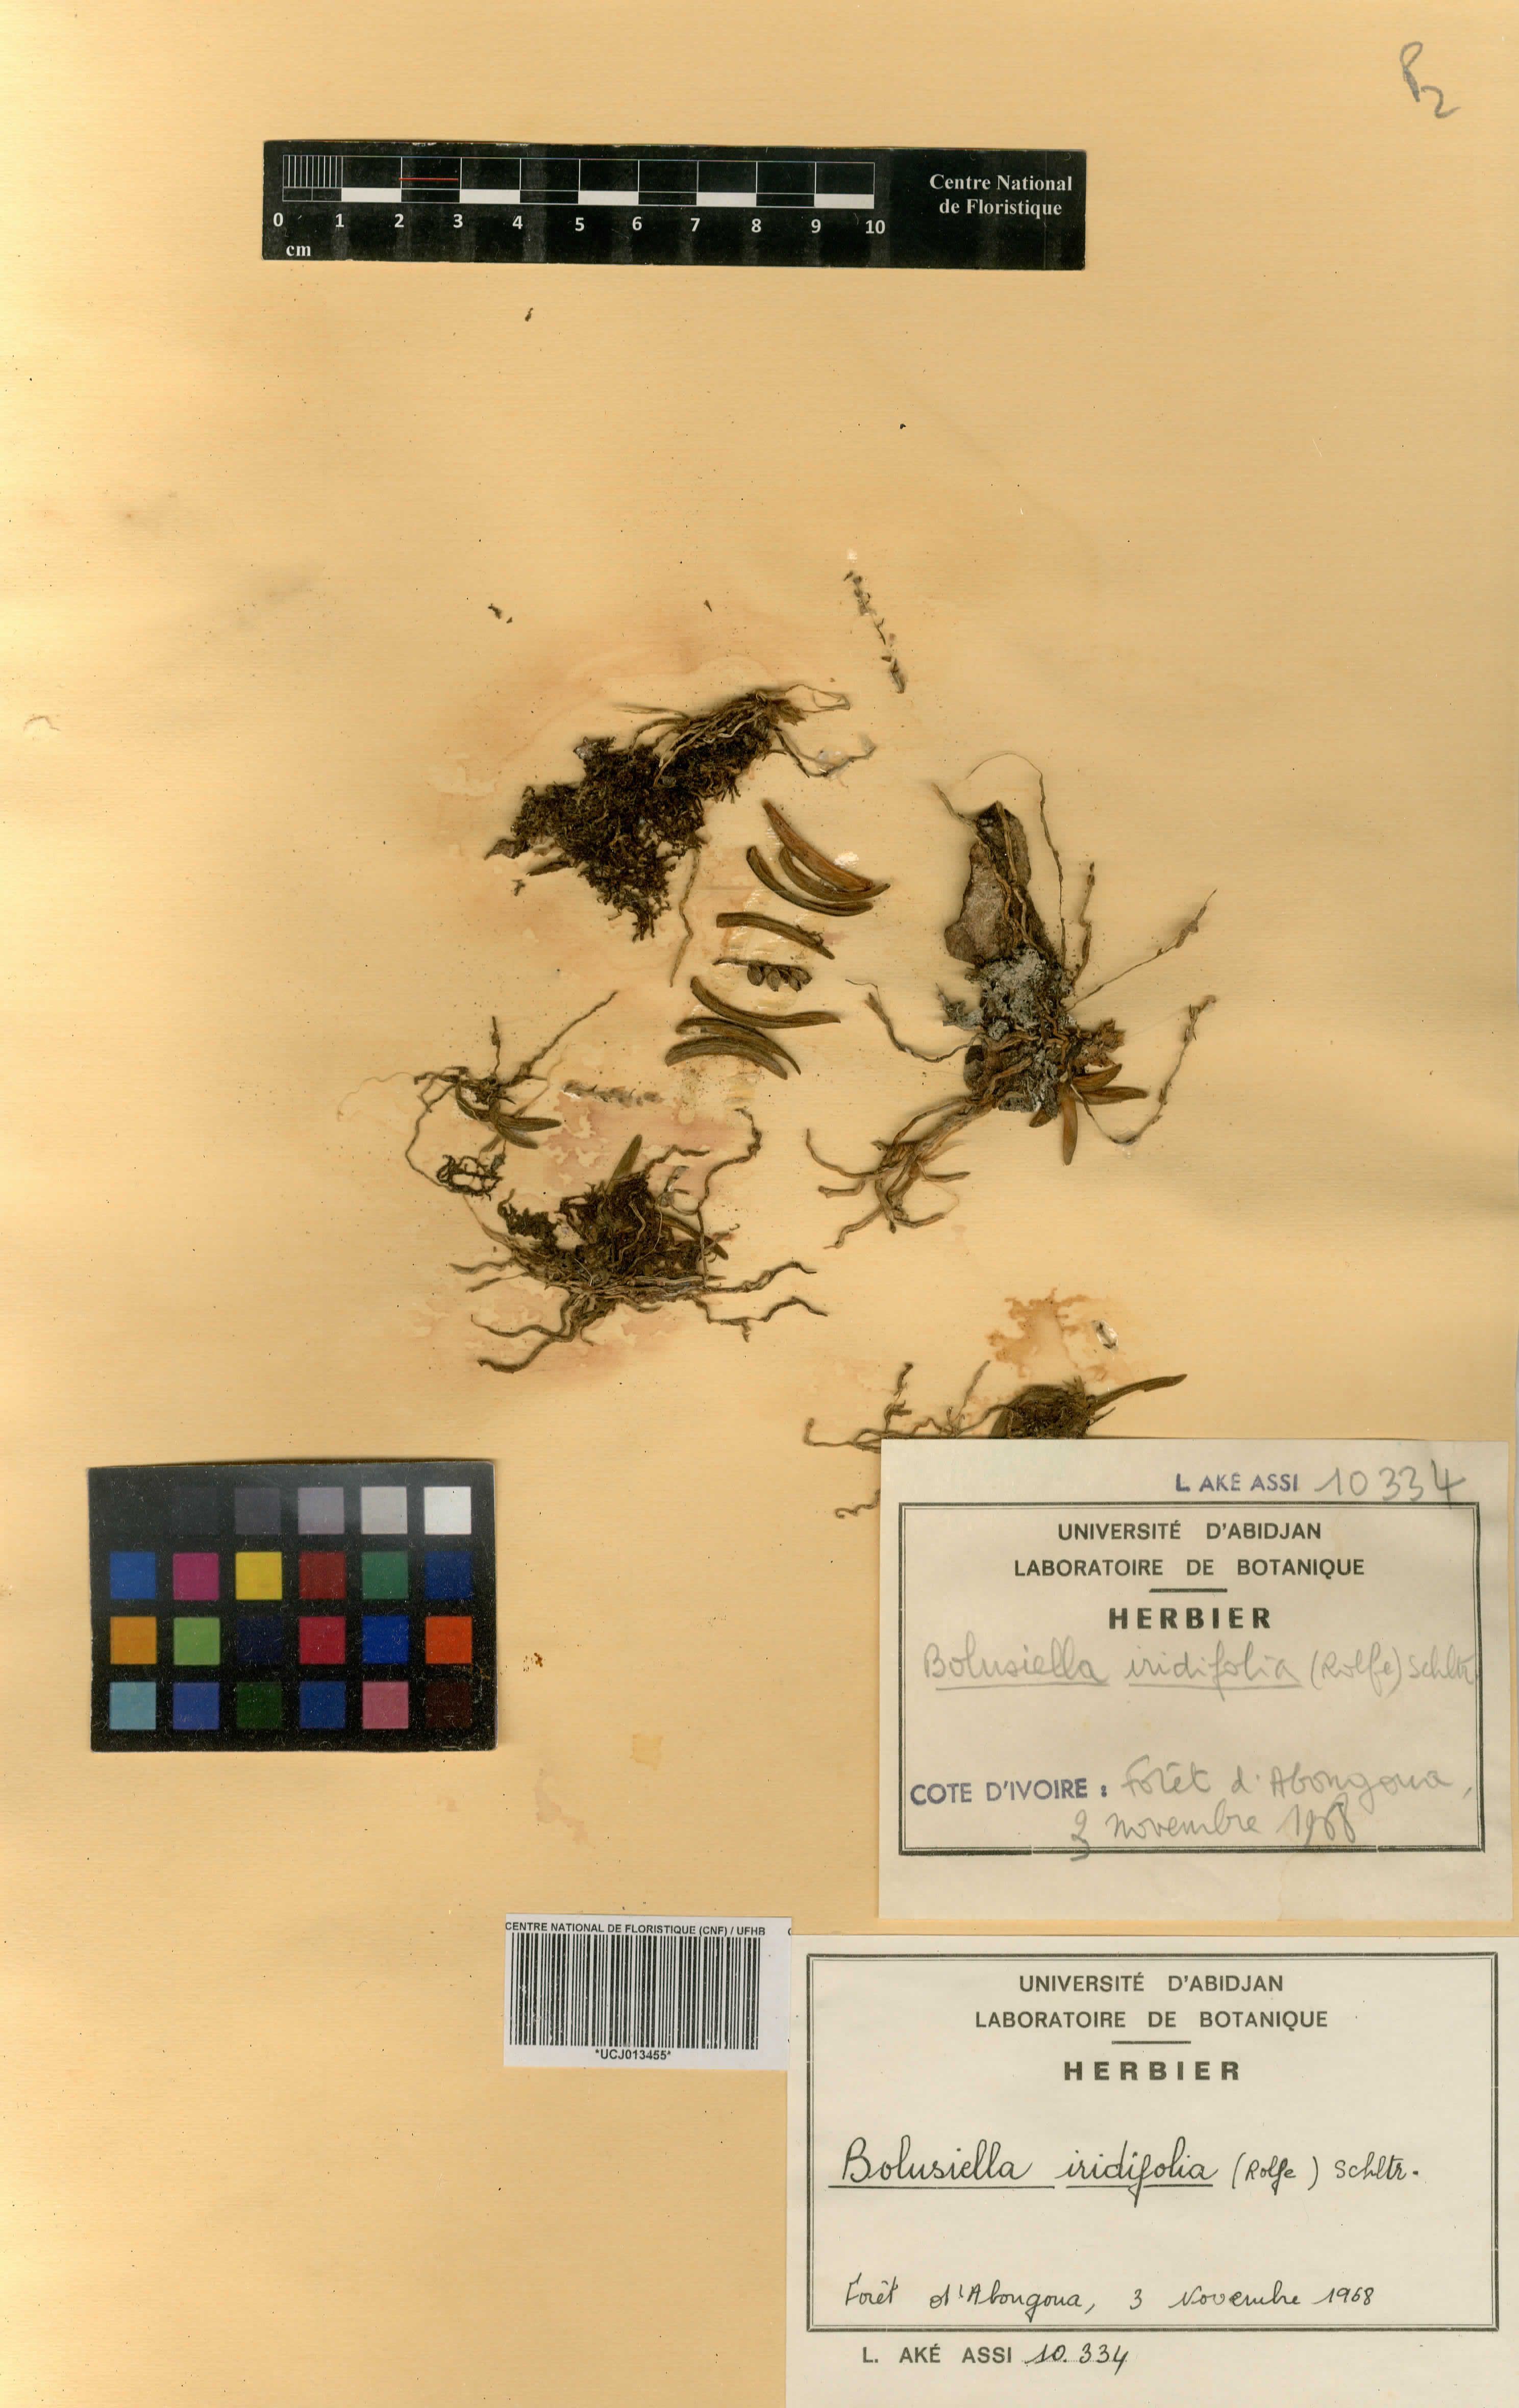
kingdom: Plantae
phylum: Tracheophyta
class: Liliopsida
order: Asparagales
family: Orchidaceae
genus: Bolusiella
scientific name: Bolusiella iridifolia
